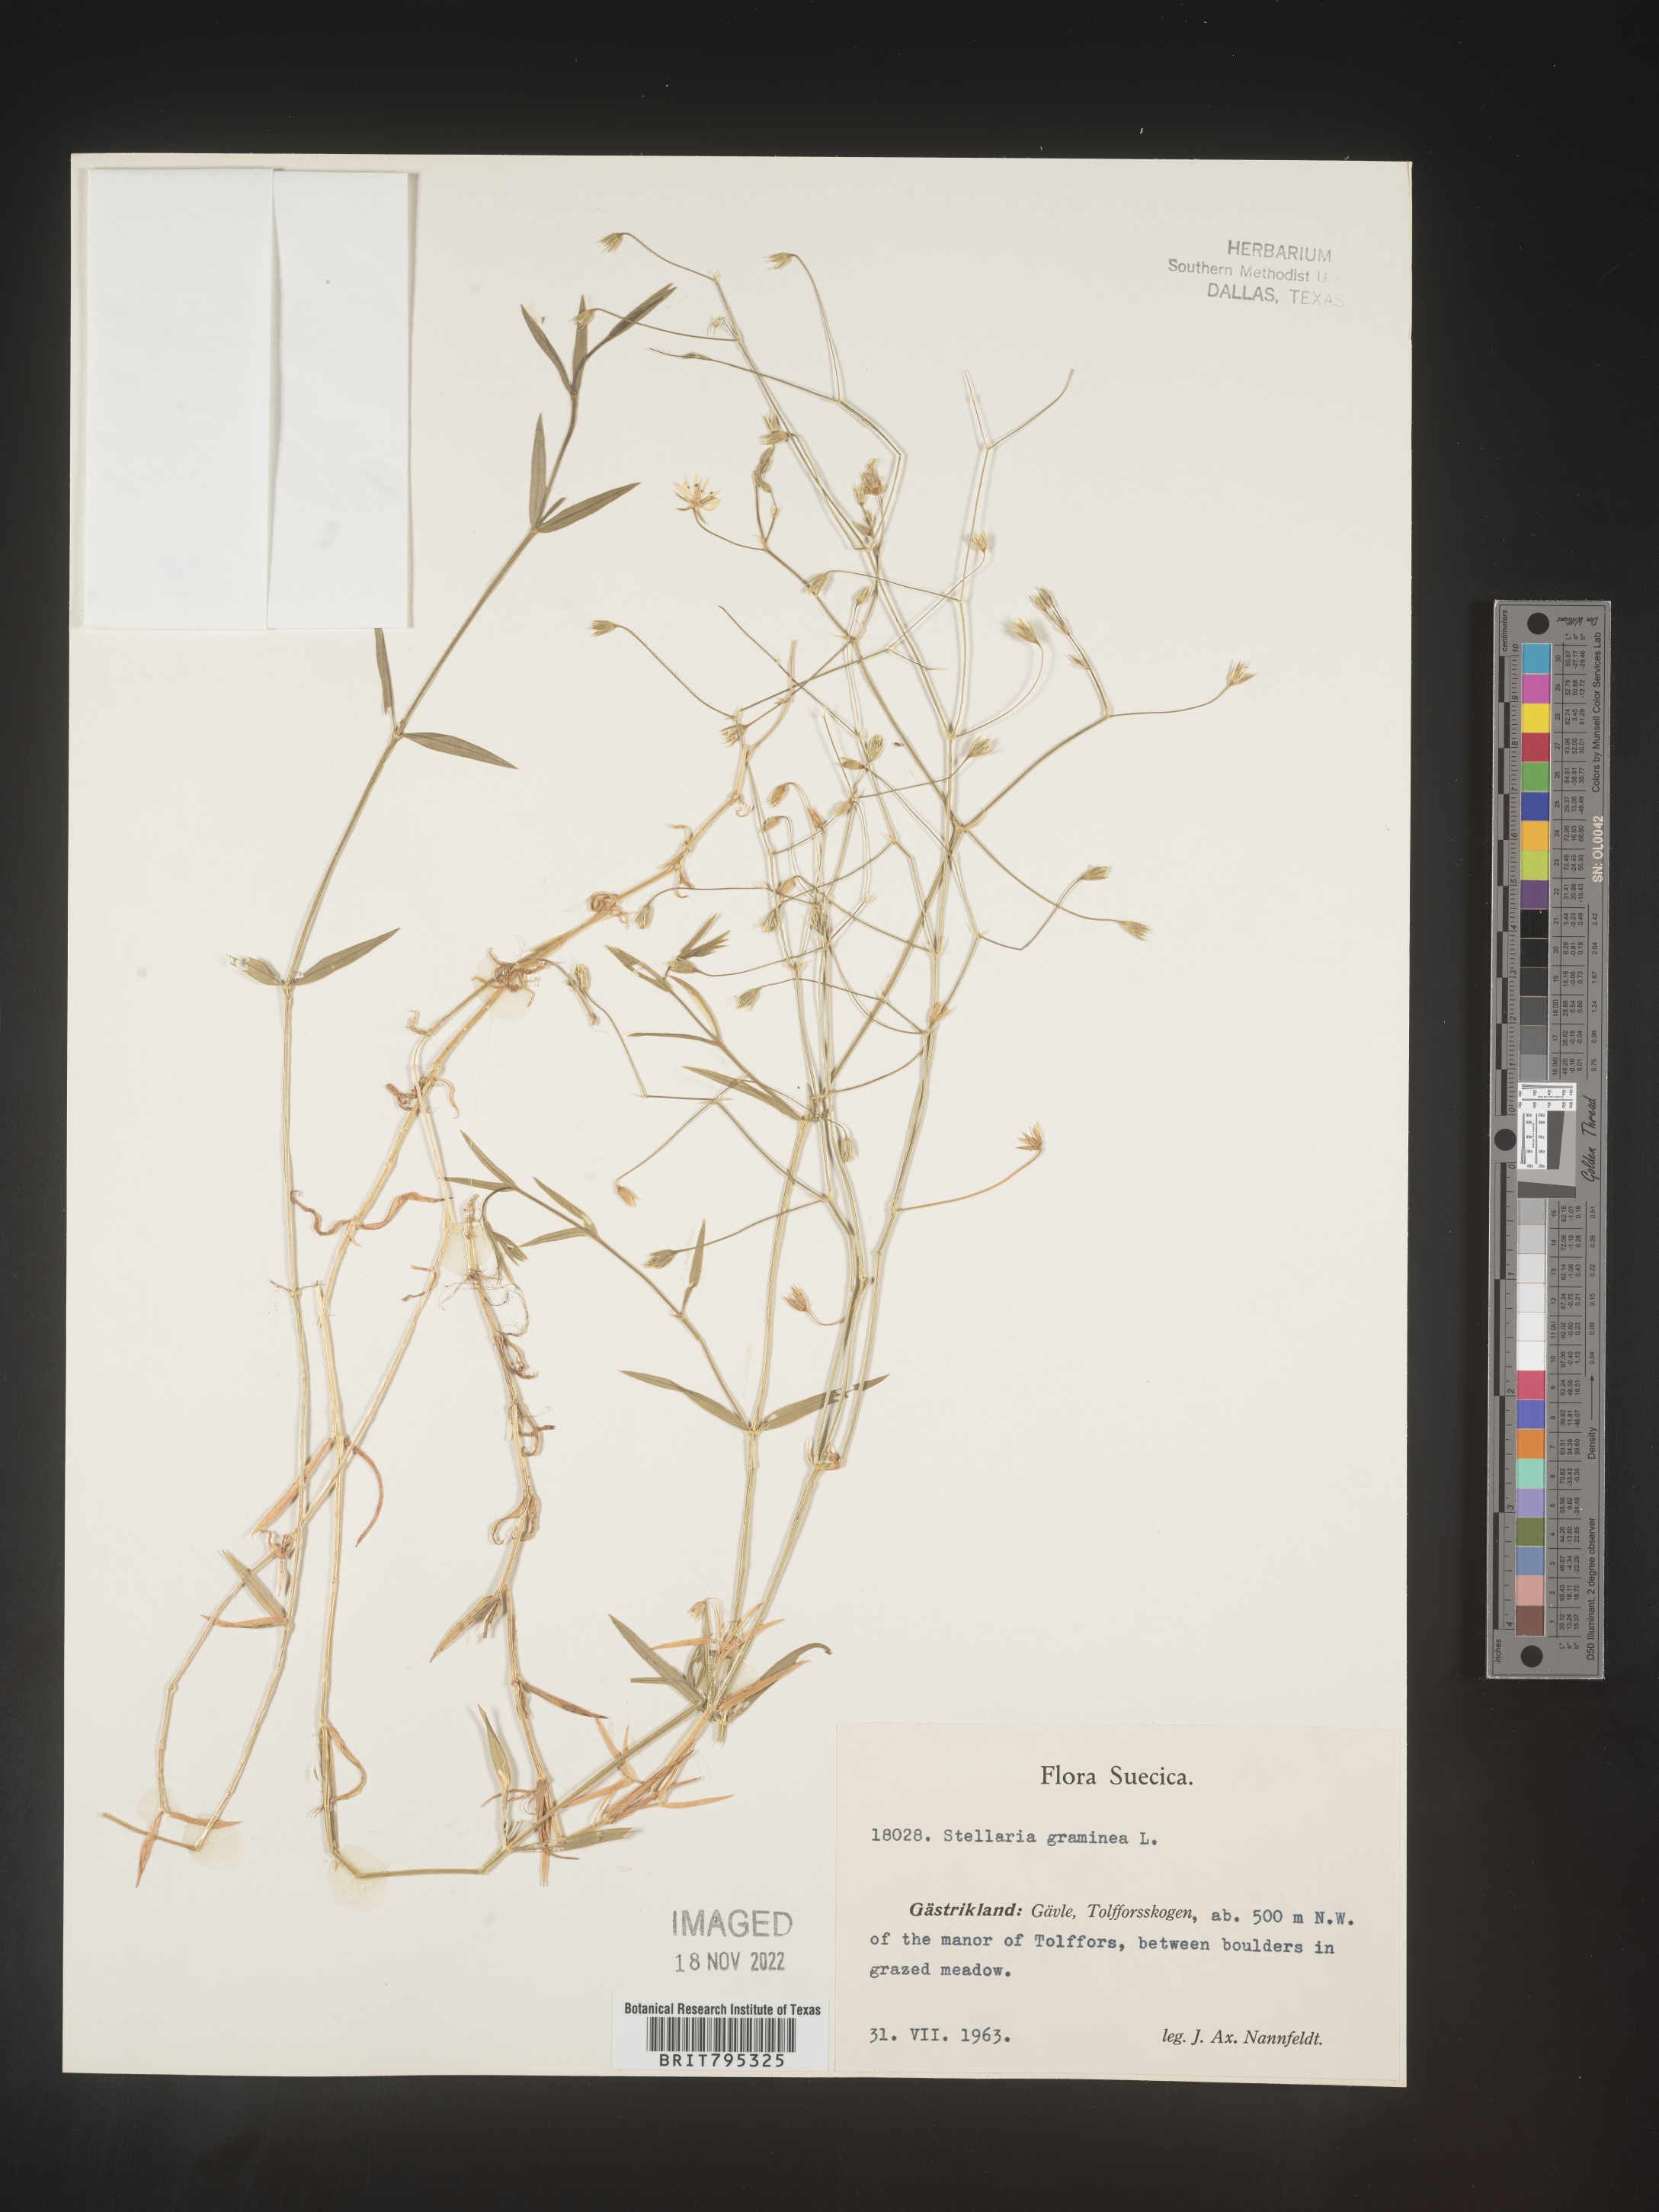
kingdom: Plantae
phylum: Tracheophyta
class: Magnoliopsida
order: Caryophyllales
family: Caryophyllaceae
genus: Stellaria
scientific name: Stellaria
